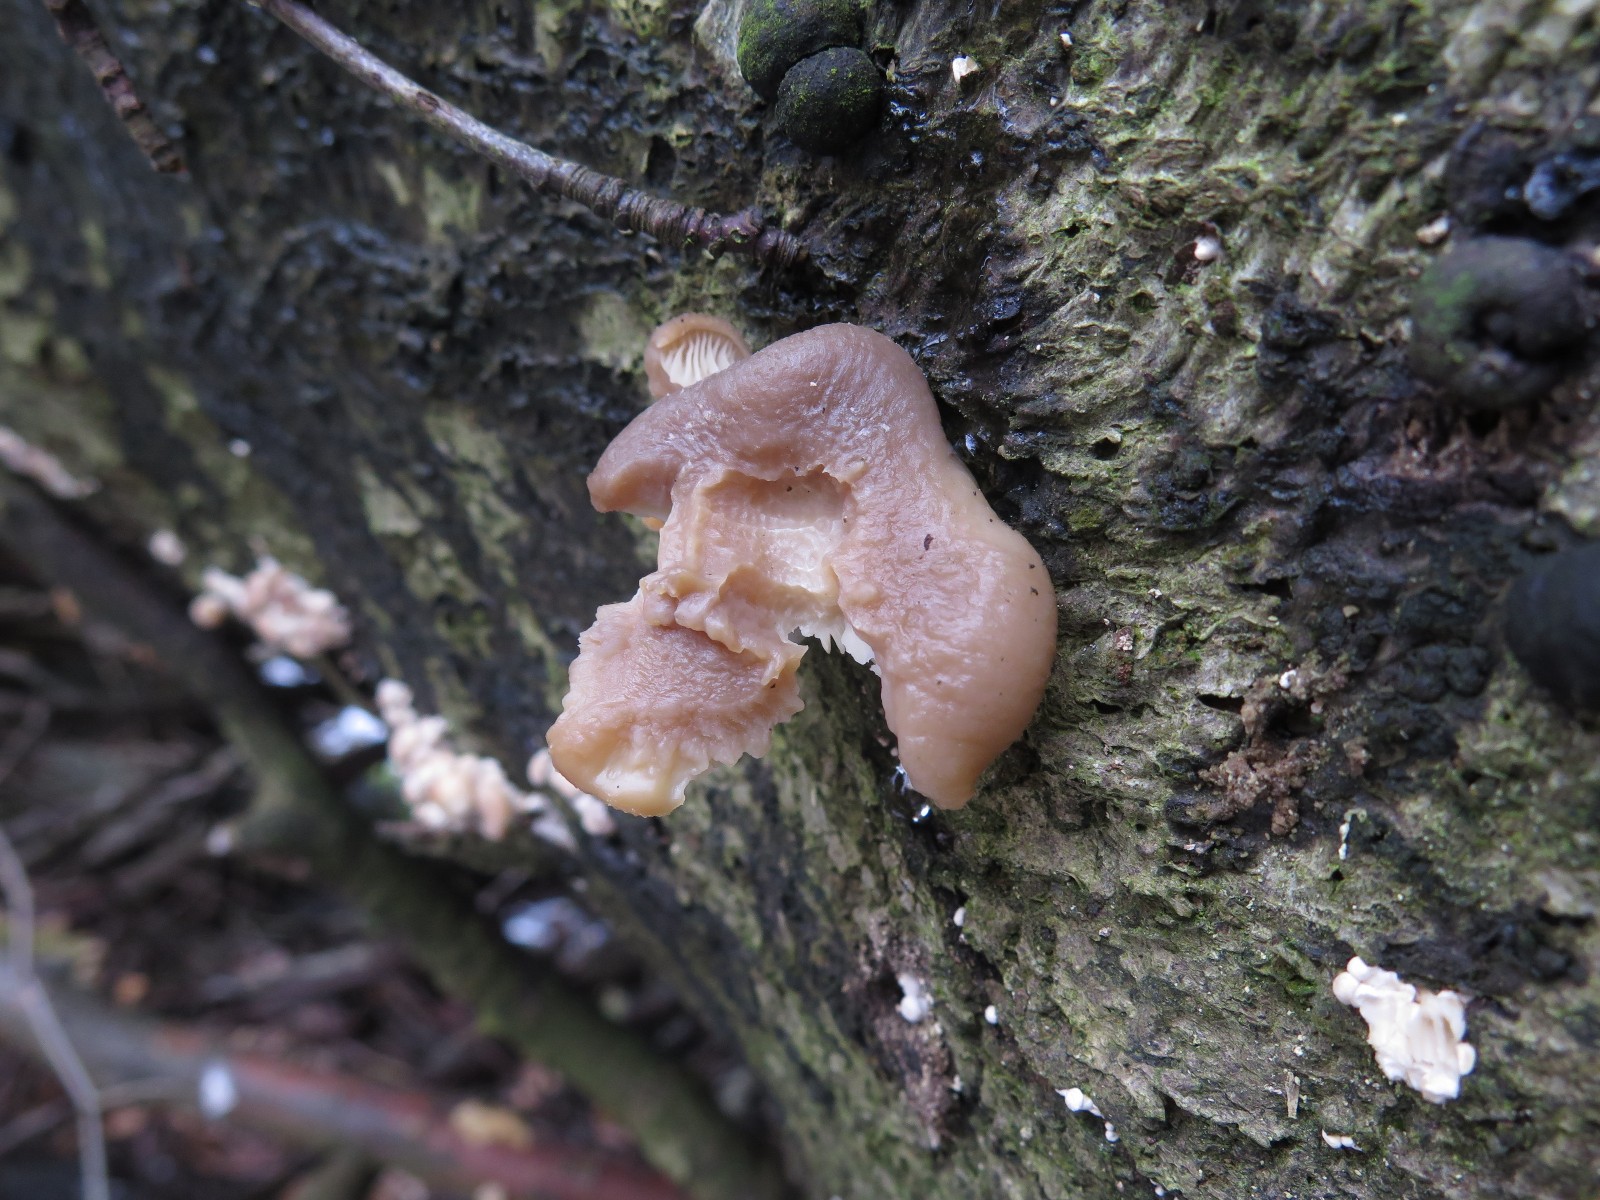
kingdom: Fungi
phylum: Basidiomycota
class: Agaricomycetes
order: Agaricales
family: Pleurotaceae
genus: Pleurotus
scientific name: Pleurotus ostreatus
